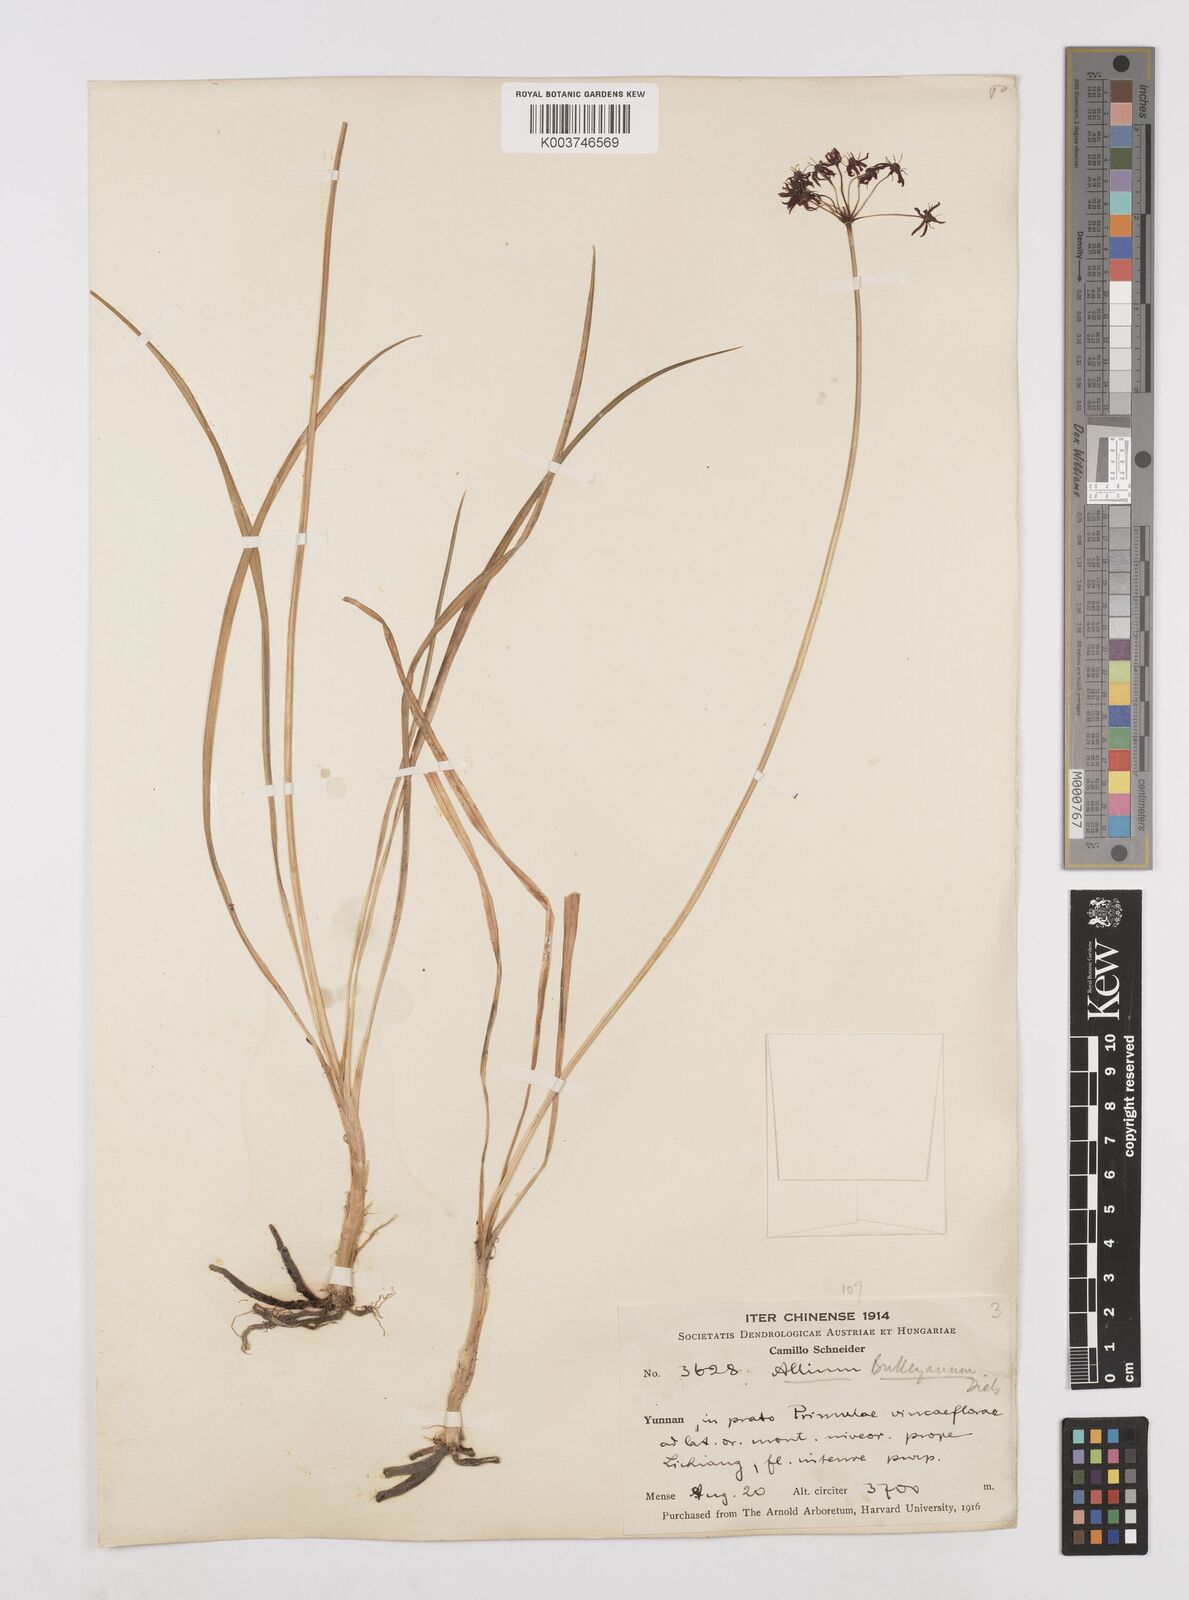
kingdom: Plantae
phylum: Tracheophyta
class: Liliopsida
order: Asparagales
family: Amaryllidaceae
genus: Allium
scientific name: Allium wallichii
